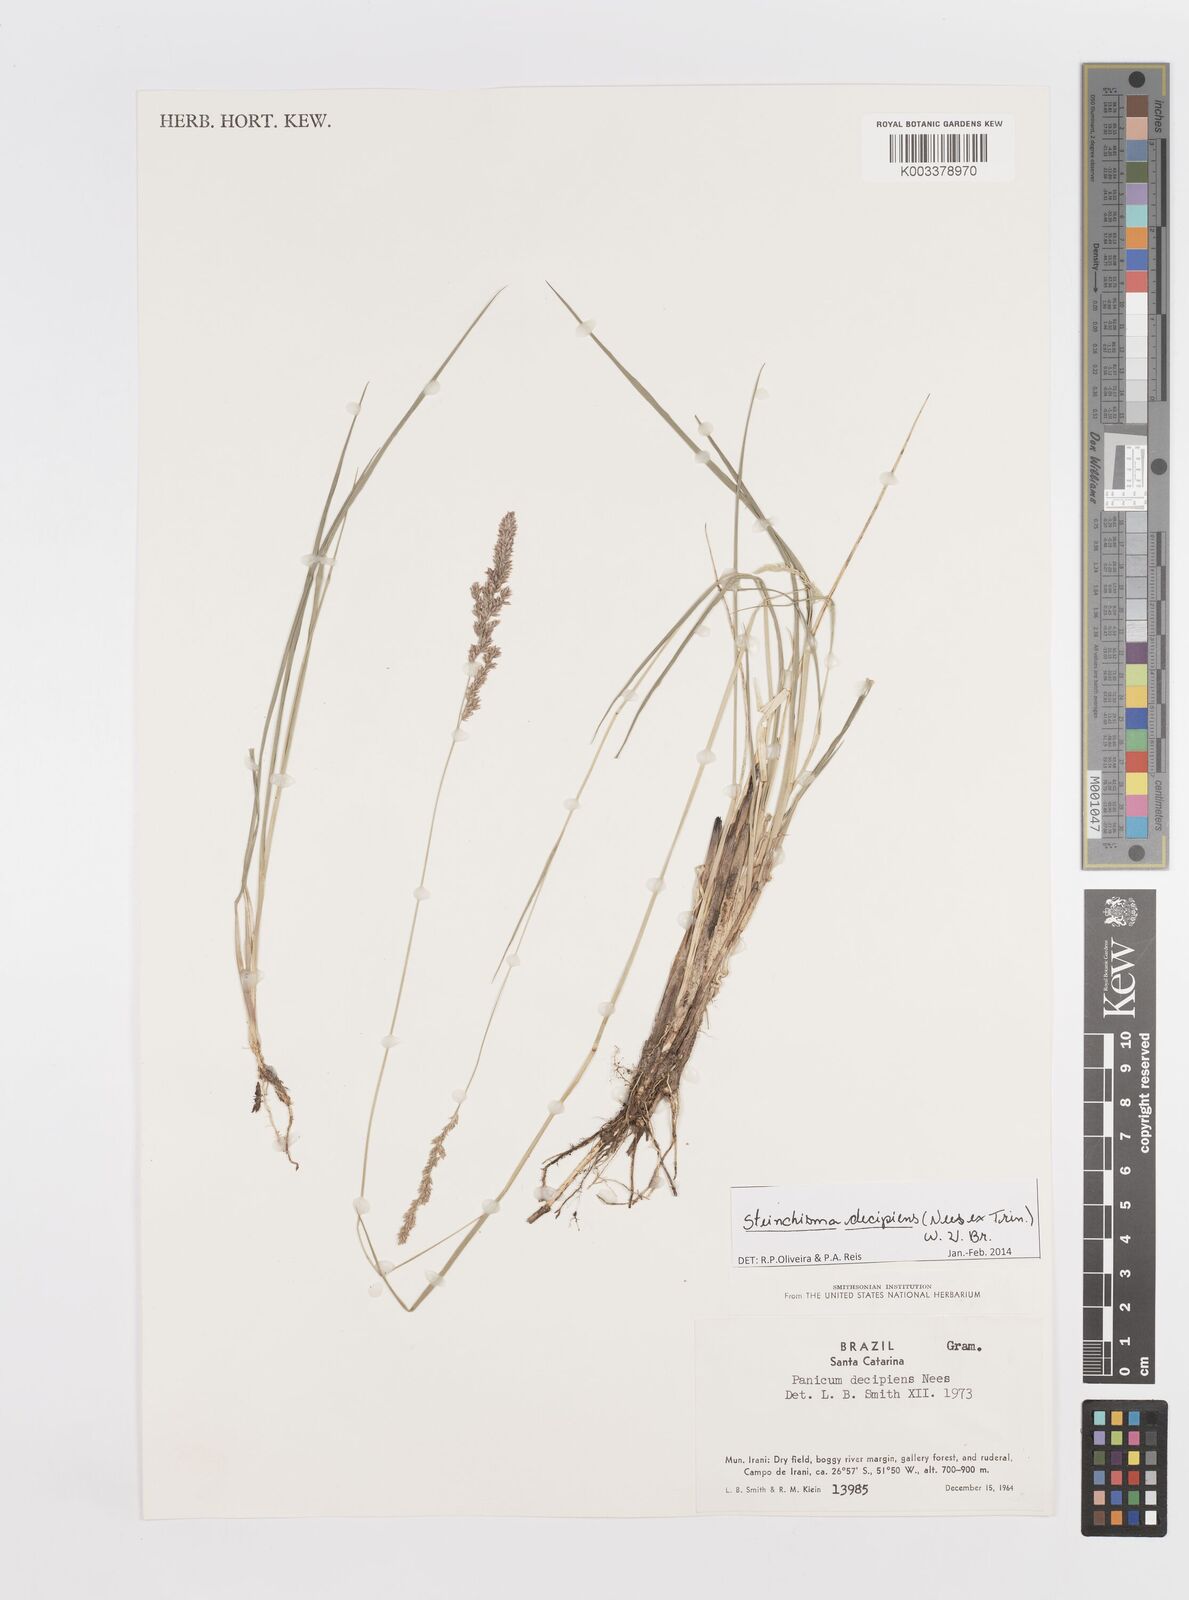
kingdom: Plantae
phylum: Tracheophyta
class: Liliopsida
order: Poales
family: Poaceae
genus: Steinchisma
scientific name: Steinchisma decipiens
